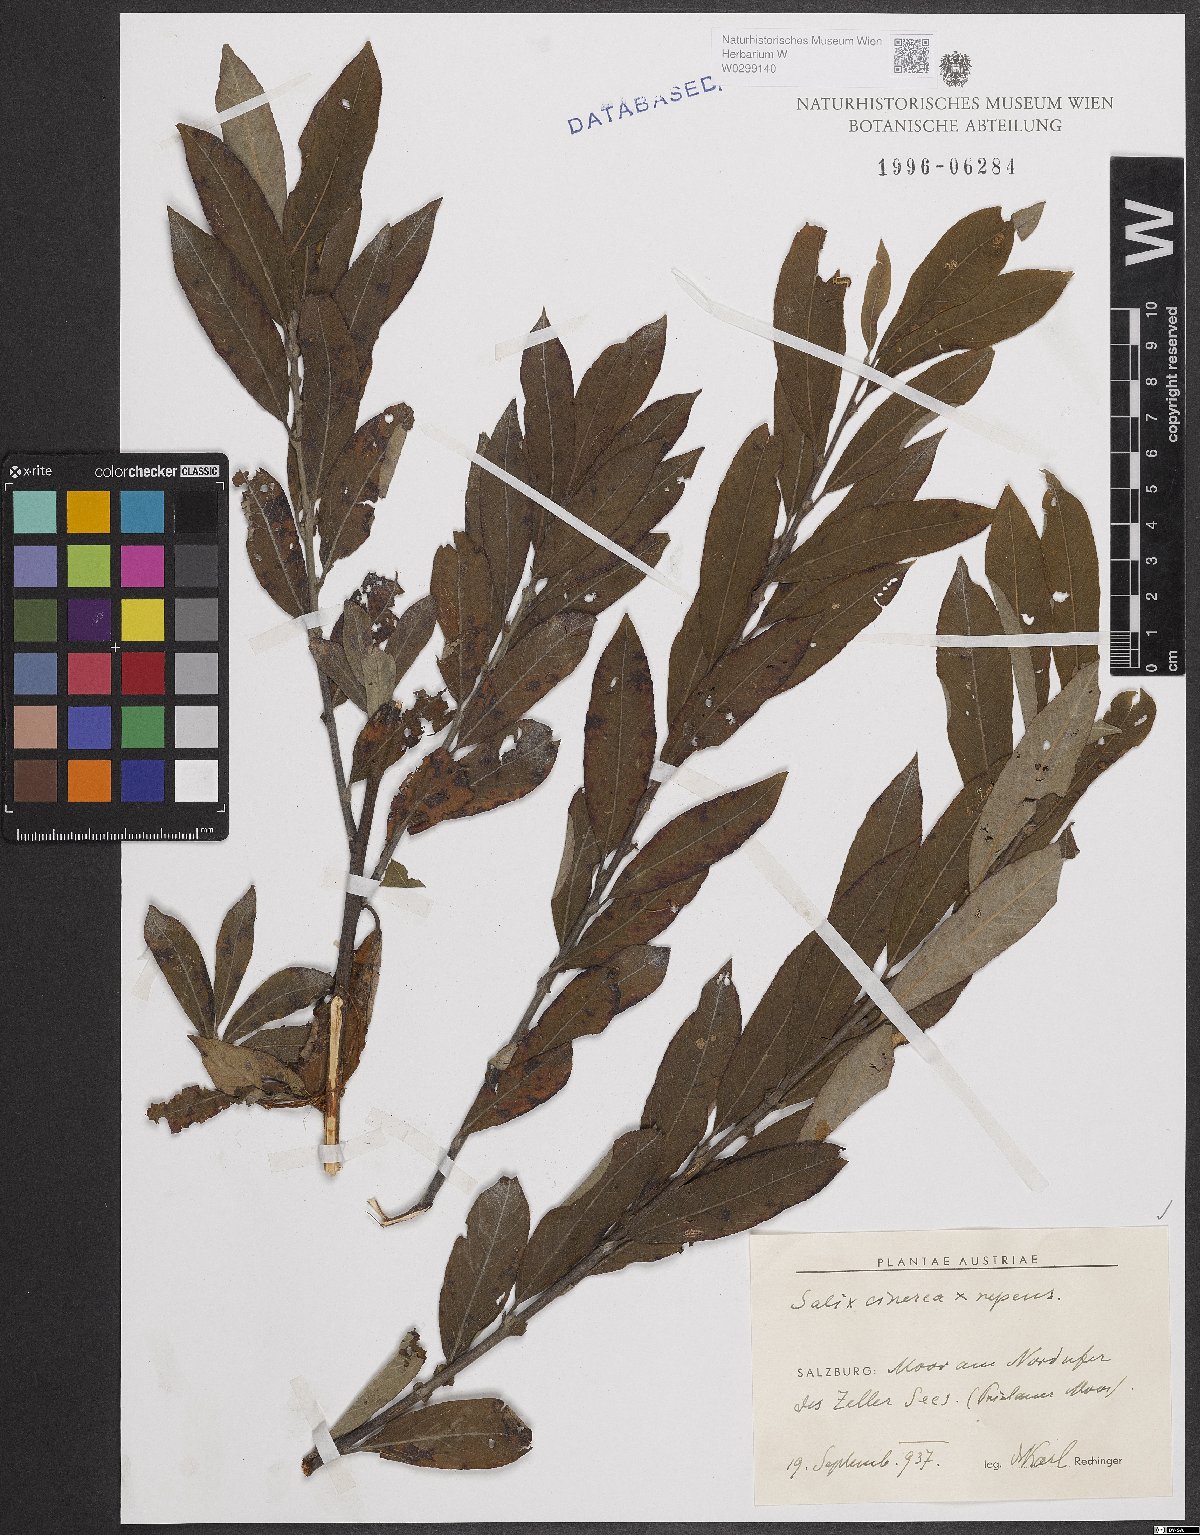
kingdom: Plantae
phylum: Tracheophyta
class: Magnoliopsida
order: Malpighiales
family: Salicaceae
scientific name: Salicaceae
